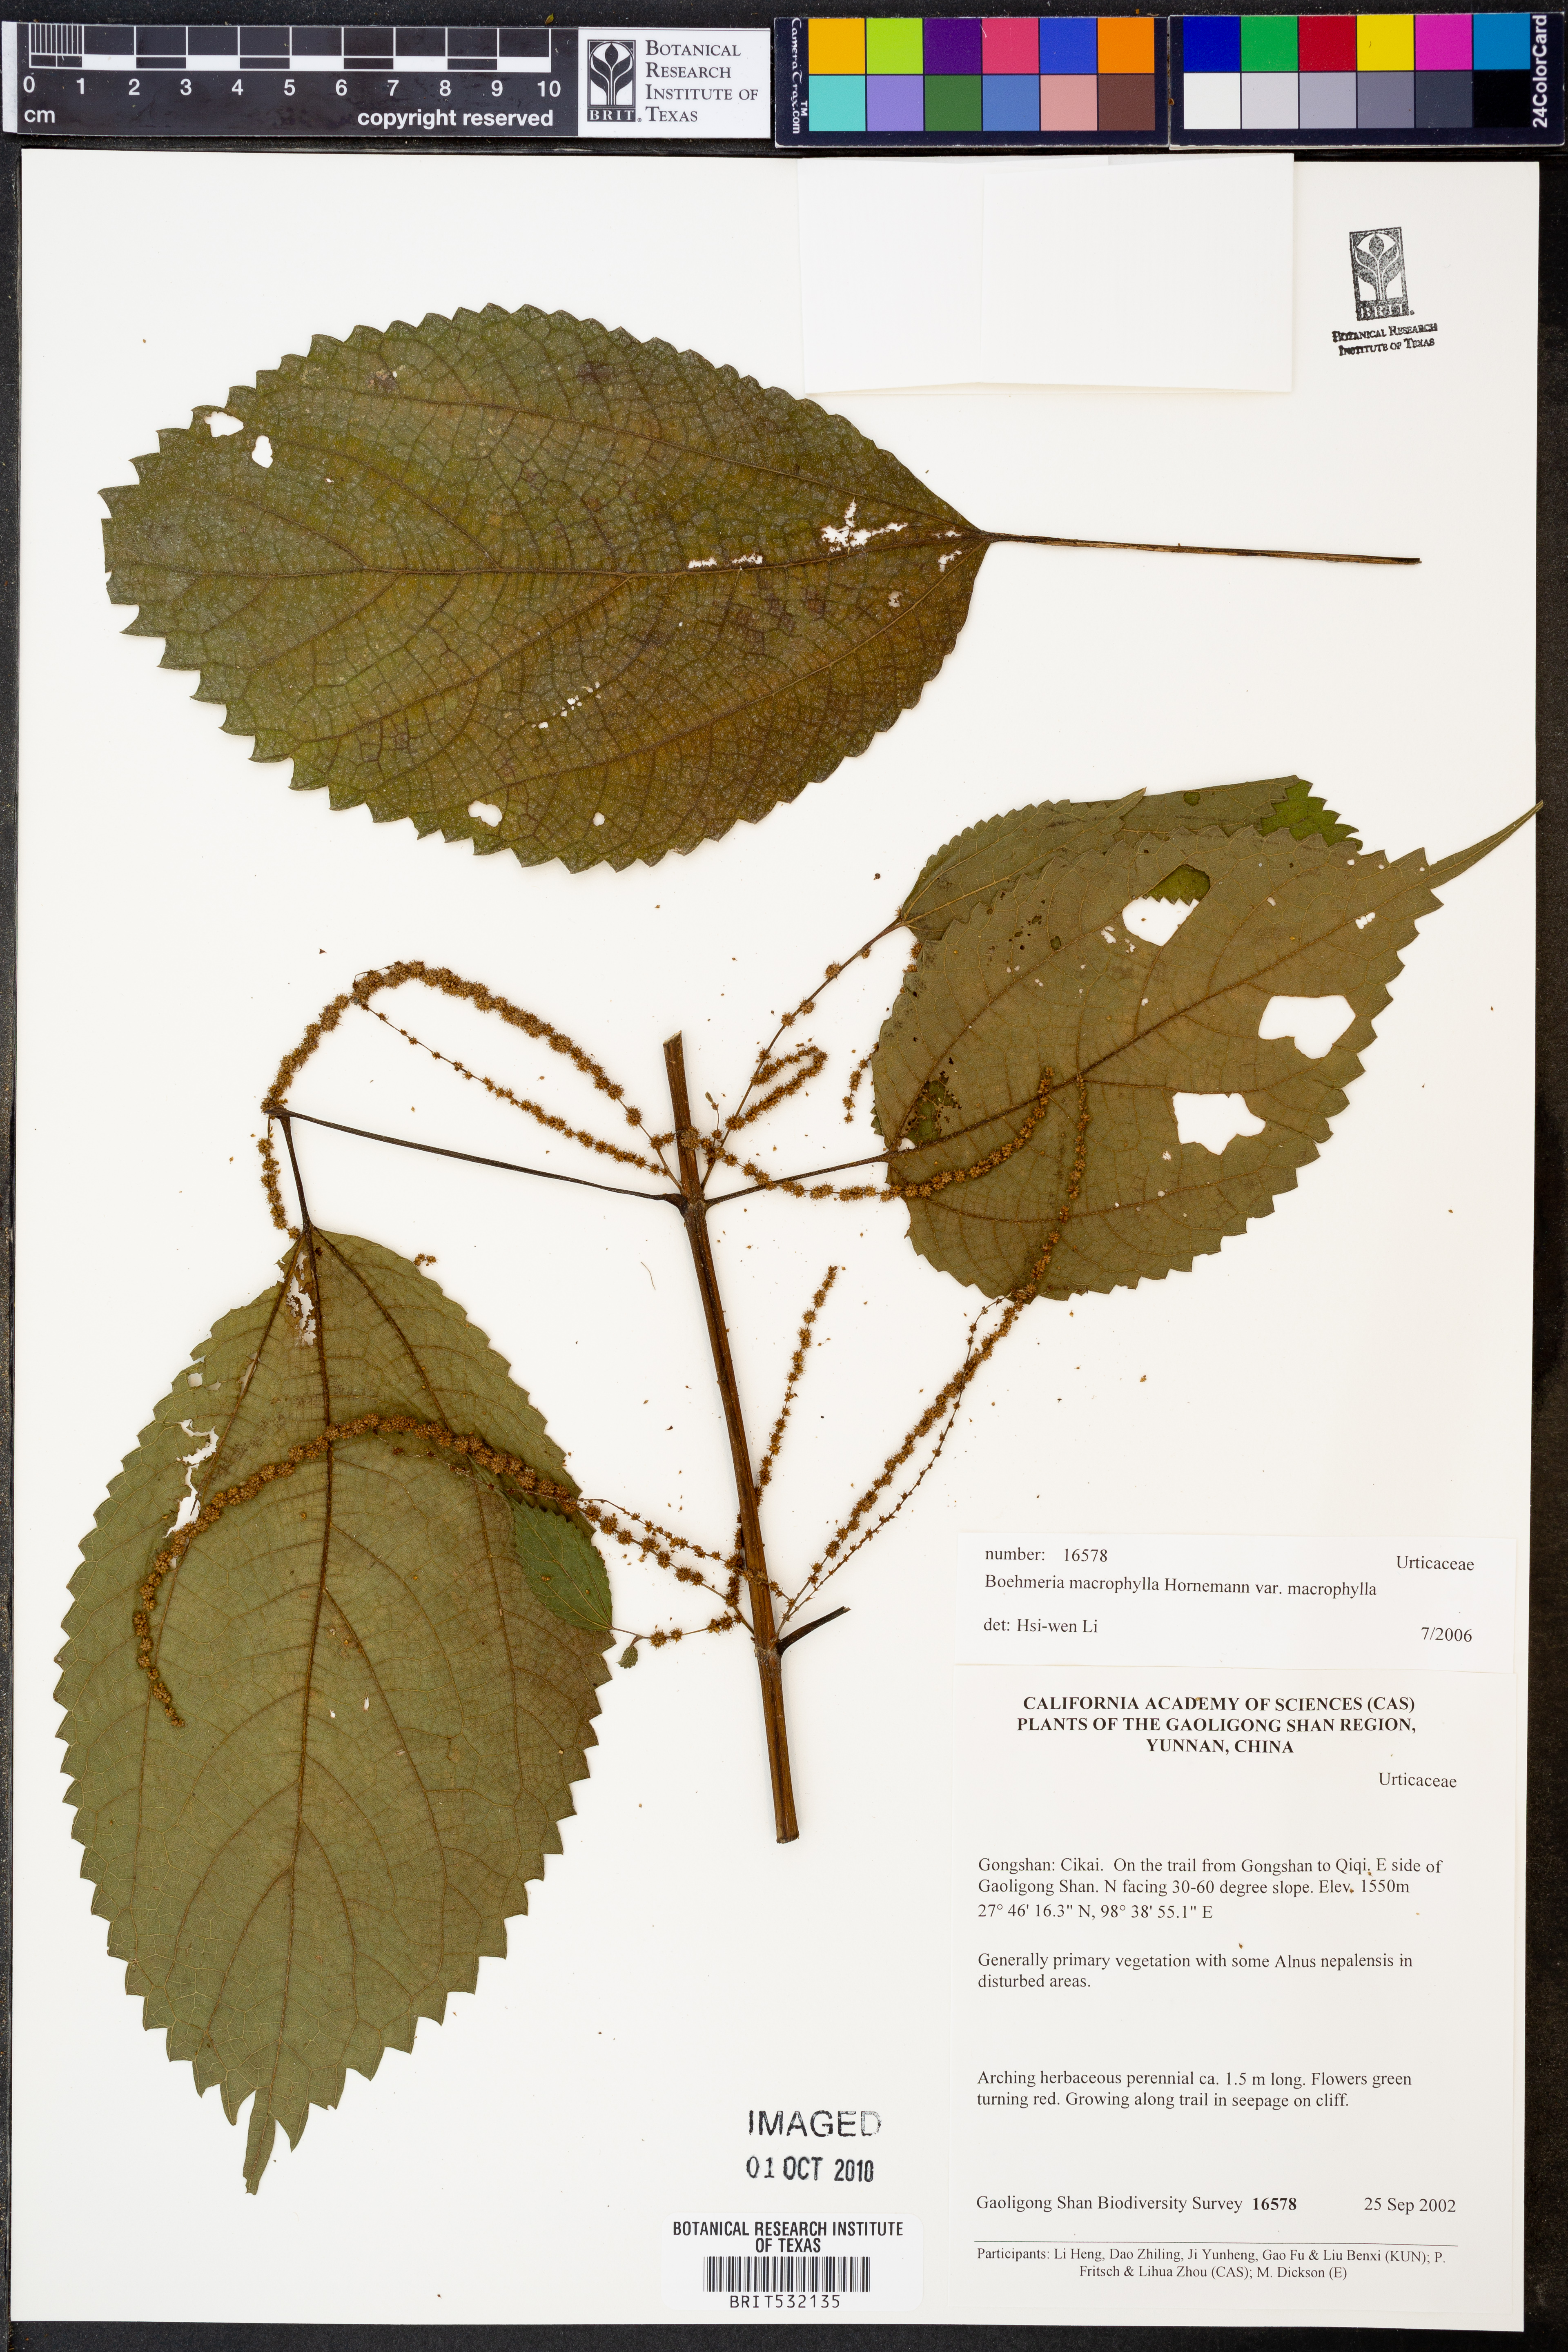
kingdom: Plantae
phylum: Tracheophyta
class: Magnoliopsida
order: Rosales
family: Urticaceae
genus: Boehmeria
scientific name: Boehmeria virgata
